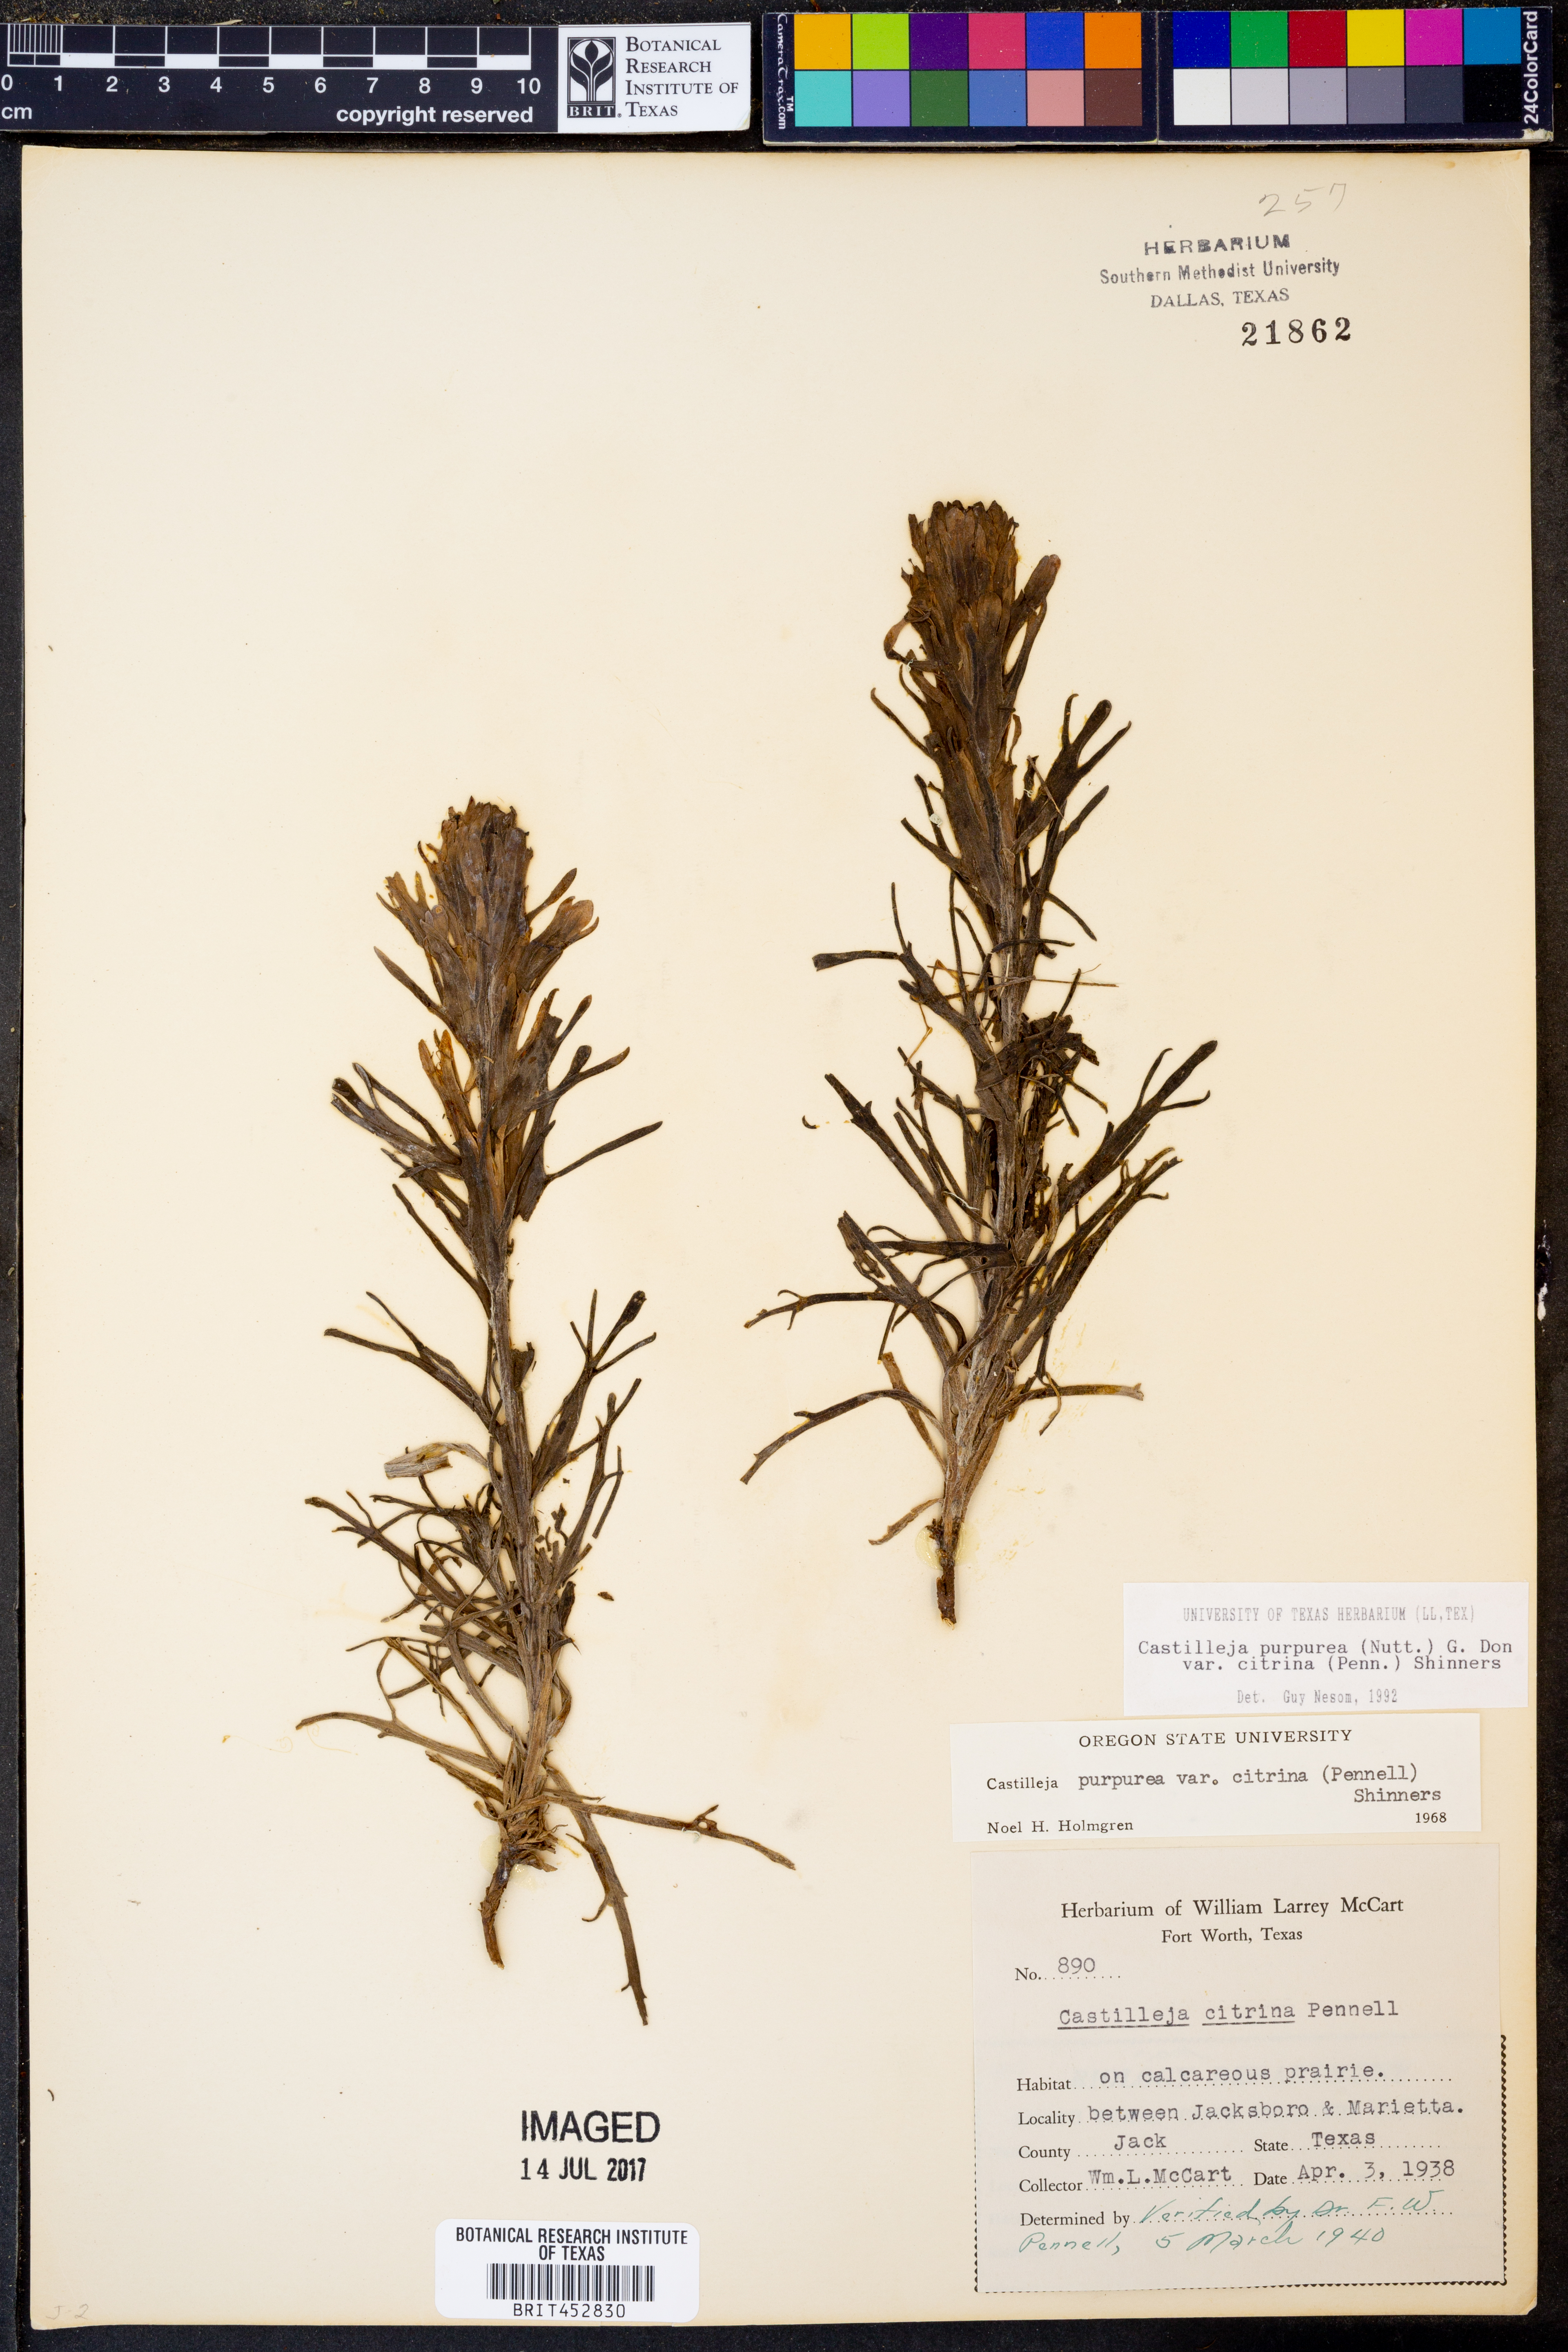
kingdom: Plantae
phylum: Tracheophyta
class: Magnoliopsida
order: Lamiales
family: Orobanchaceae
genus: Castilleja
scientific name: Castilleja citrina
